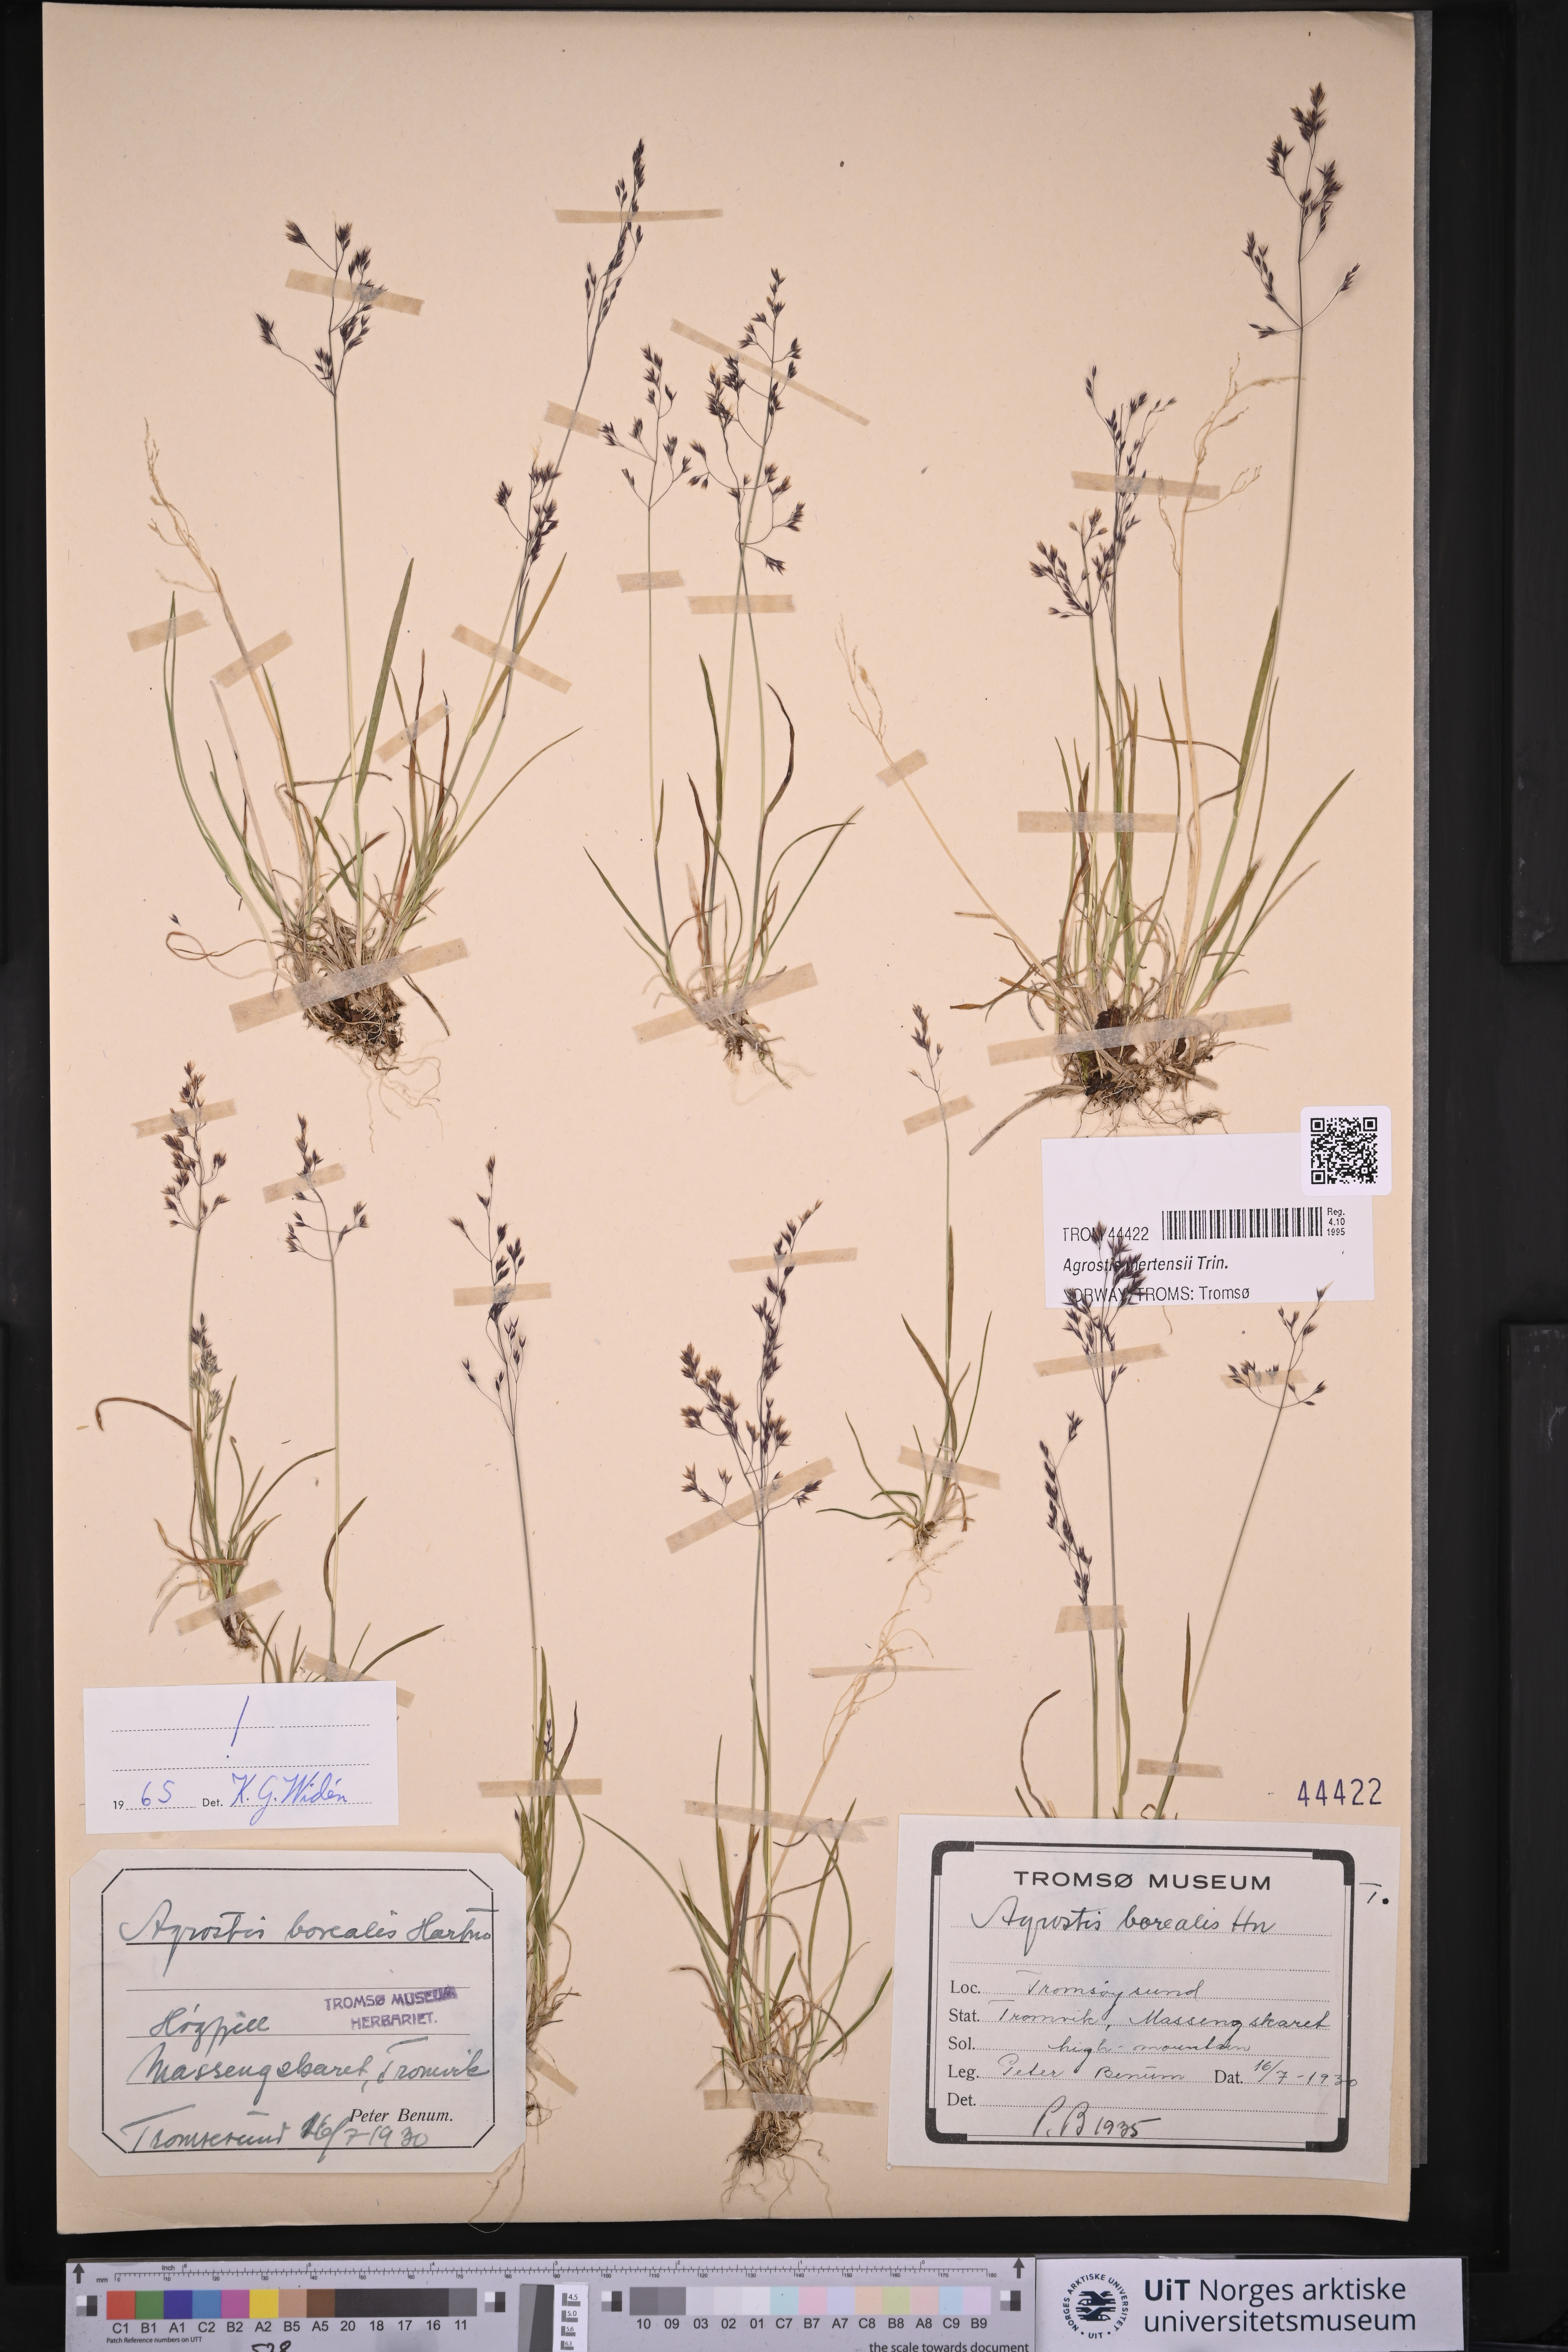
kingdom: Plantae
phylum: Tracheophyta
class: Liliopsida
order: Poales
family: Poaceae
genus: Agrostis
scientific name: Agrostis mertensii
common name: Northern bent
